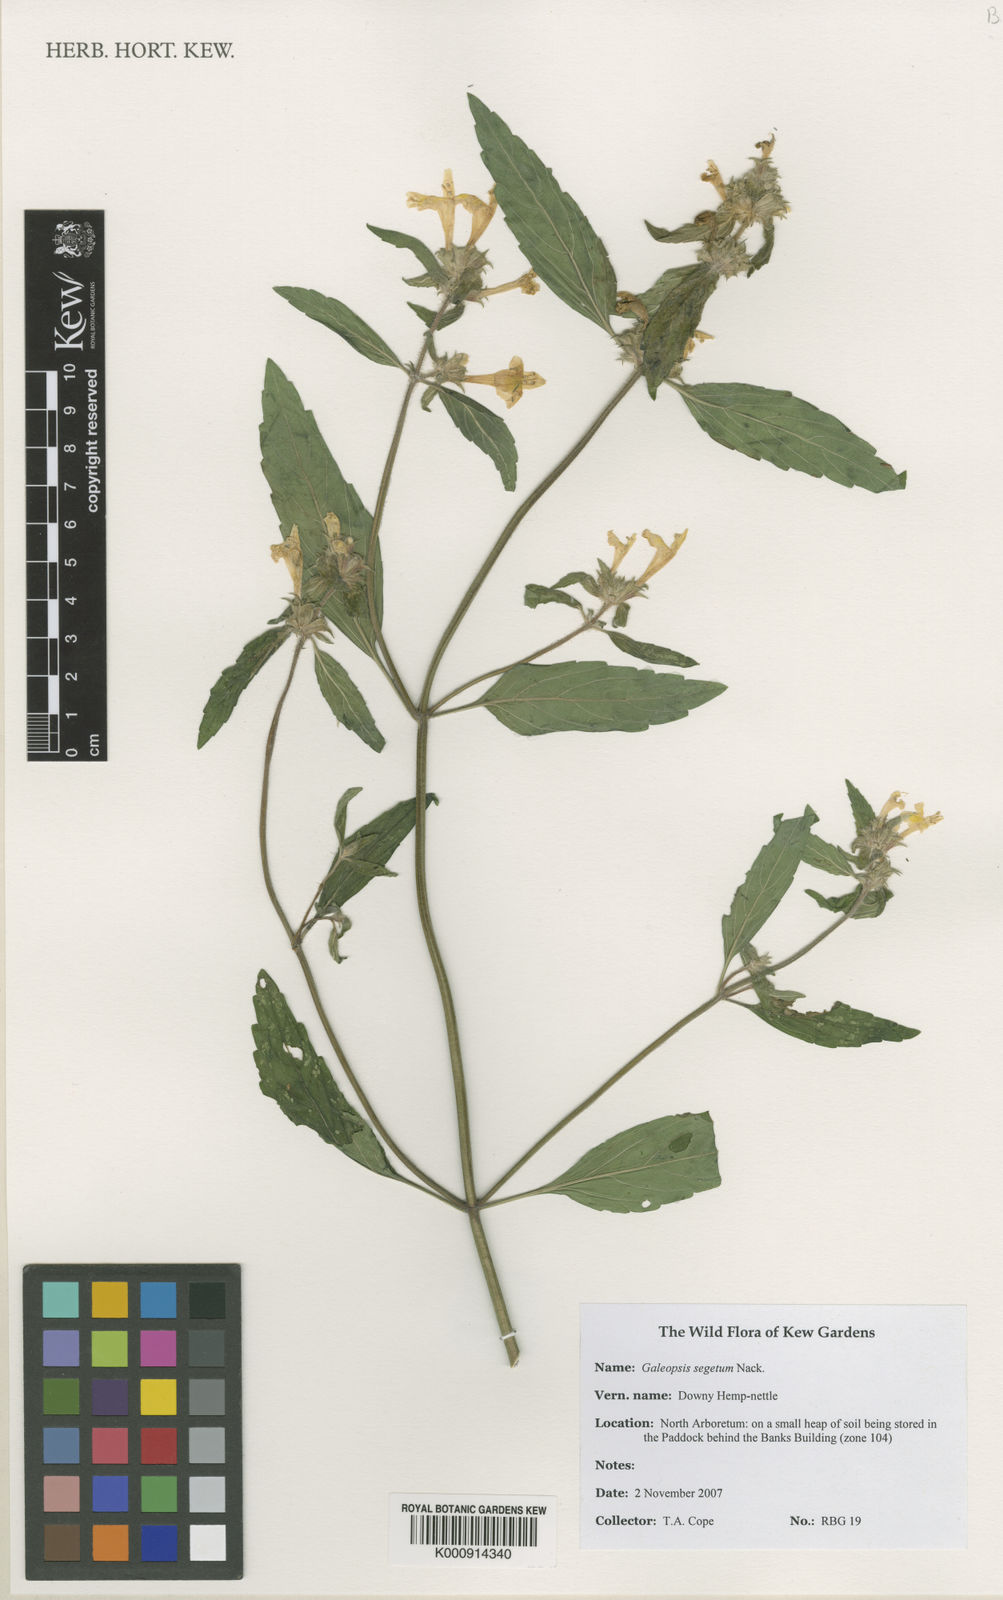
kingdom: Plantae
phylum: Tracheophyta
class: Magnoliopsida
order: Lamiales
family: Lamiaceae
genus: Galeopsis
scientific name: Galeopsis
